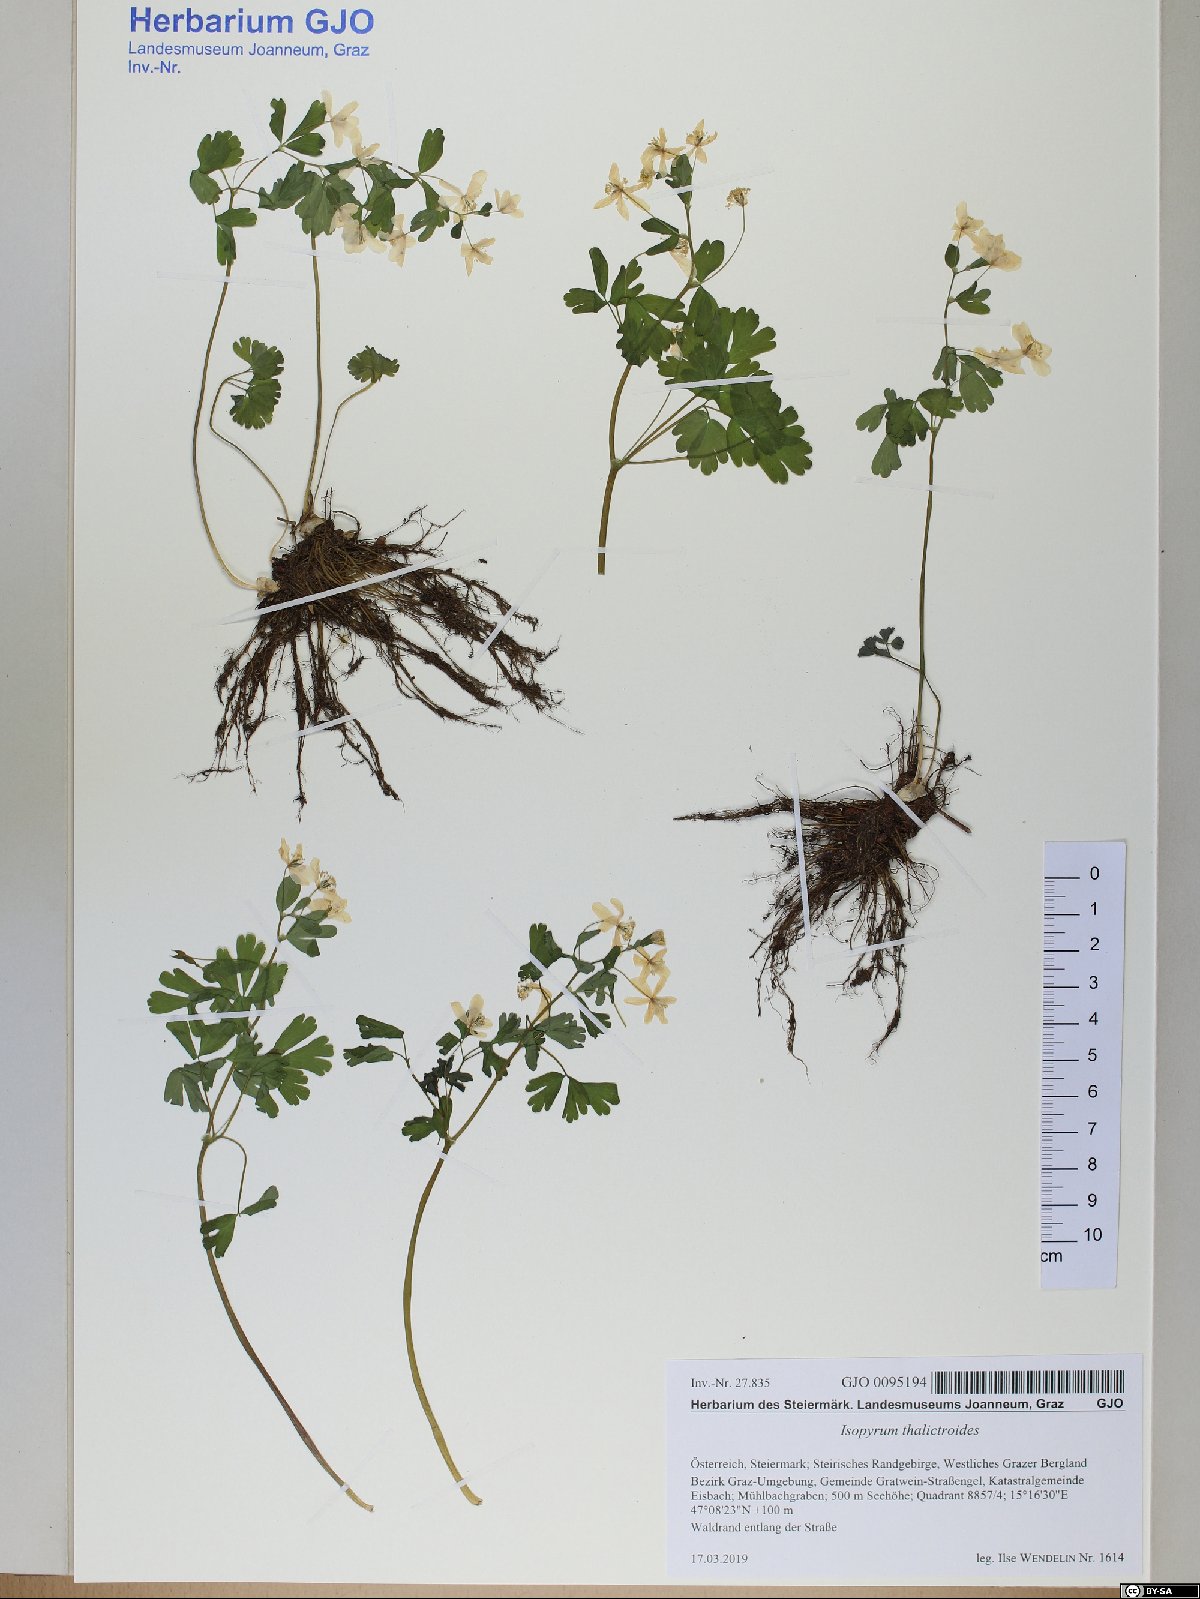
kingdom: Plantae
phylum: Tracheophyta
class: Magnoliopsida
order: Ranunculales
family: Ranunculaceae
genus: Isopyrum
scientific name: Isopyrum thalictroides
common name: Isopyrum
